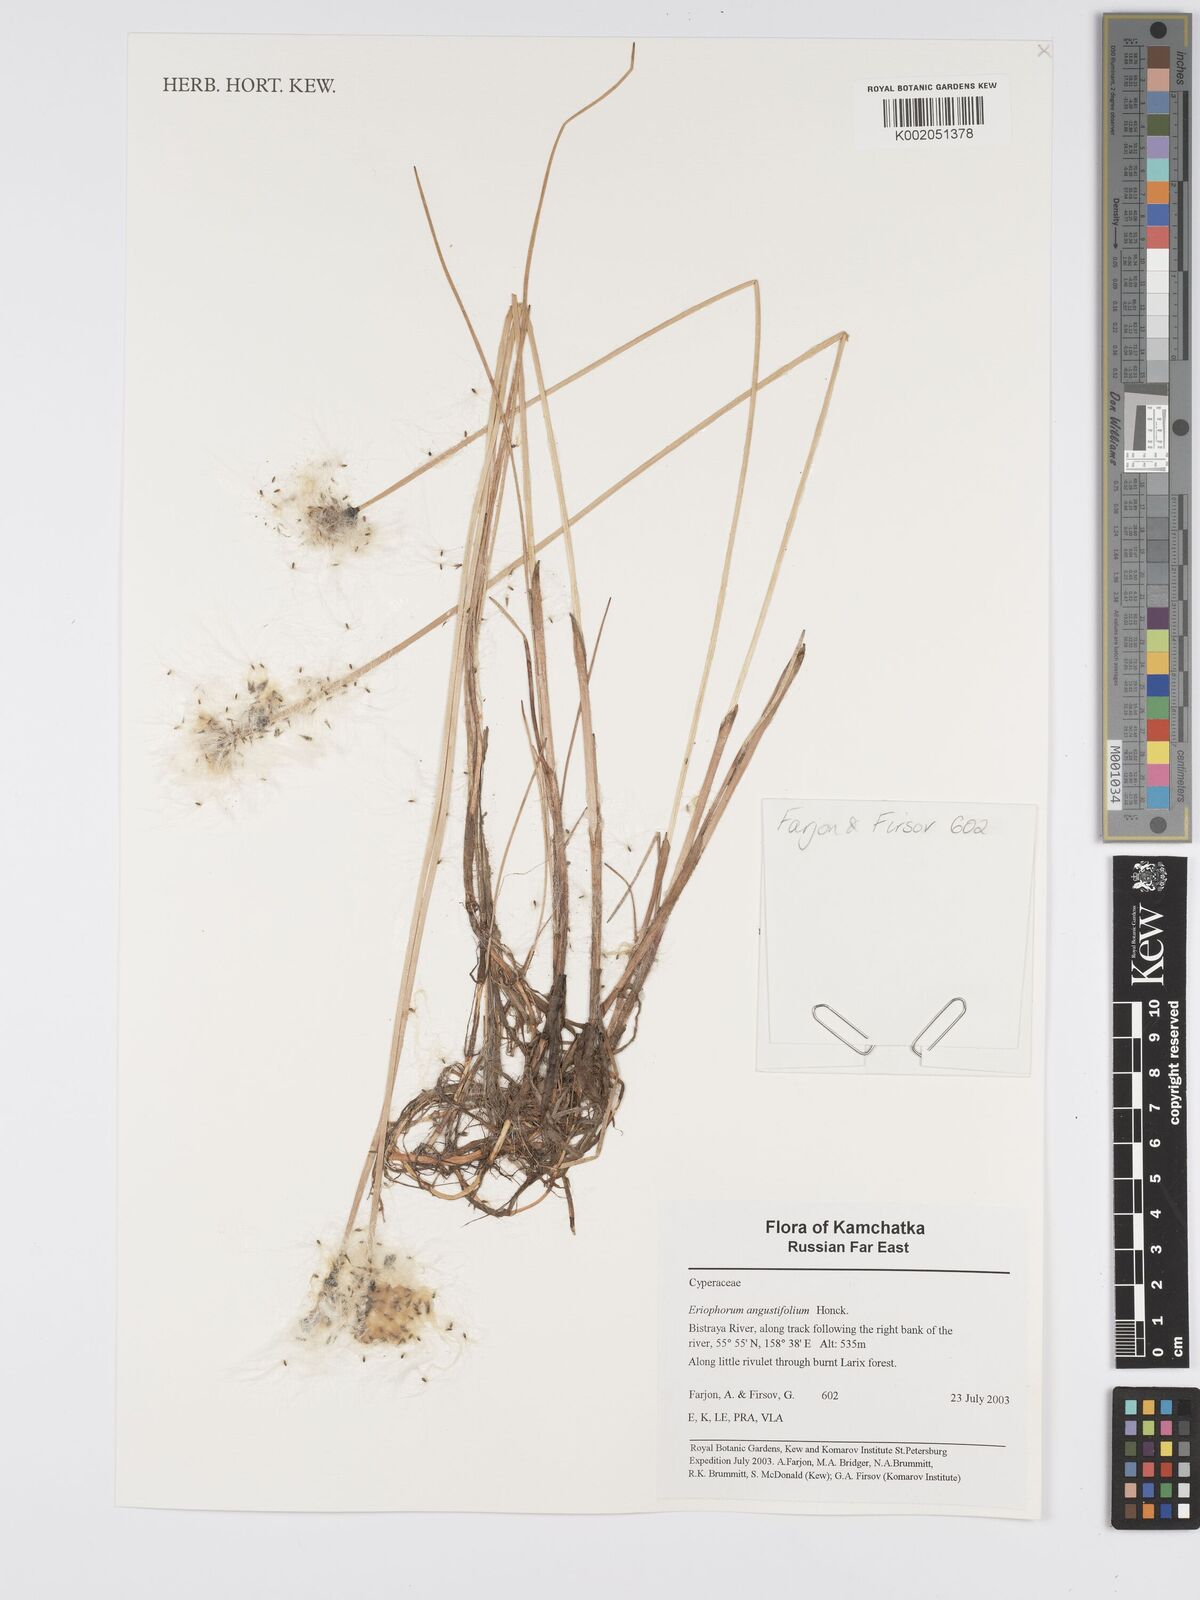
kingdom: Plantae
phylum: Tracheophyta
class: Liliopsida
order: Poales
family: Cyperaceae
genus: Eriophorum
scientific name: Eriophorum angustifolium
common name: Common cottongrass
